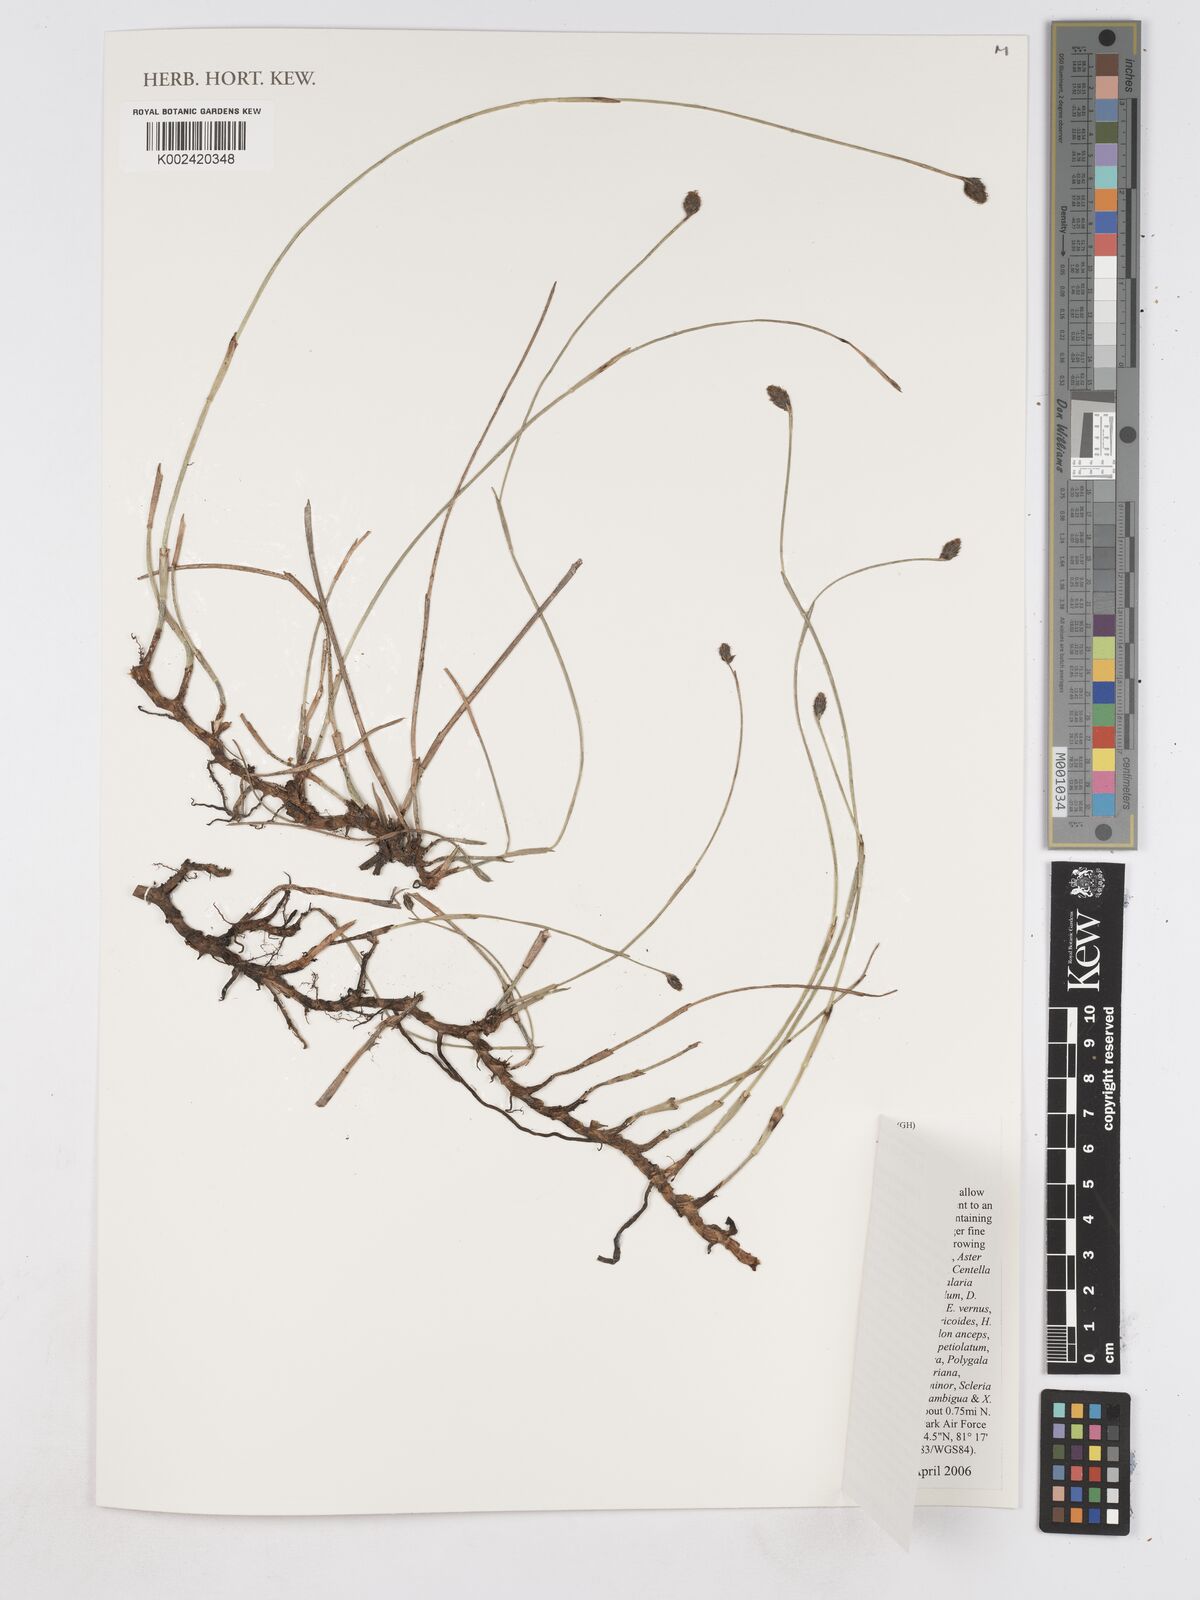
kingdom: Plantae
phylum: Tracheophyta
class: Liliopsida
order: Poales
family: Cyperaceae
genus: Fuirena
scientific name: Fuirena scirpoidea
